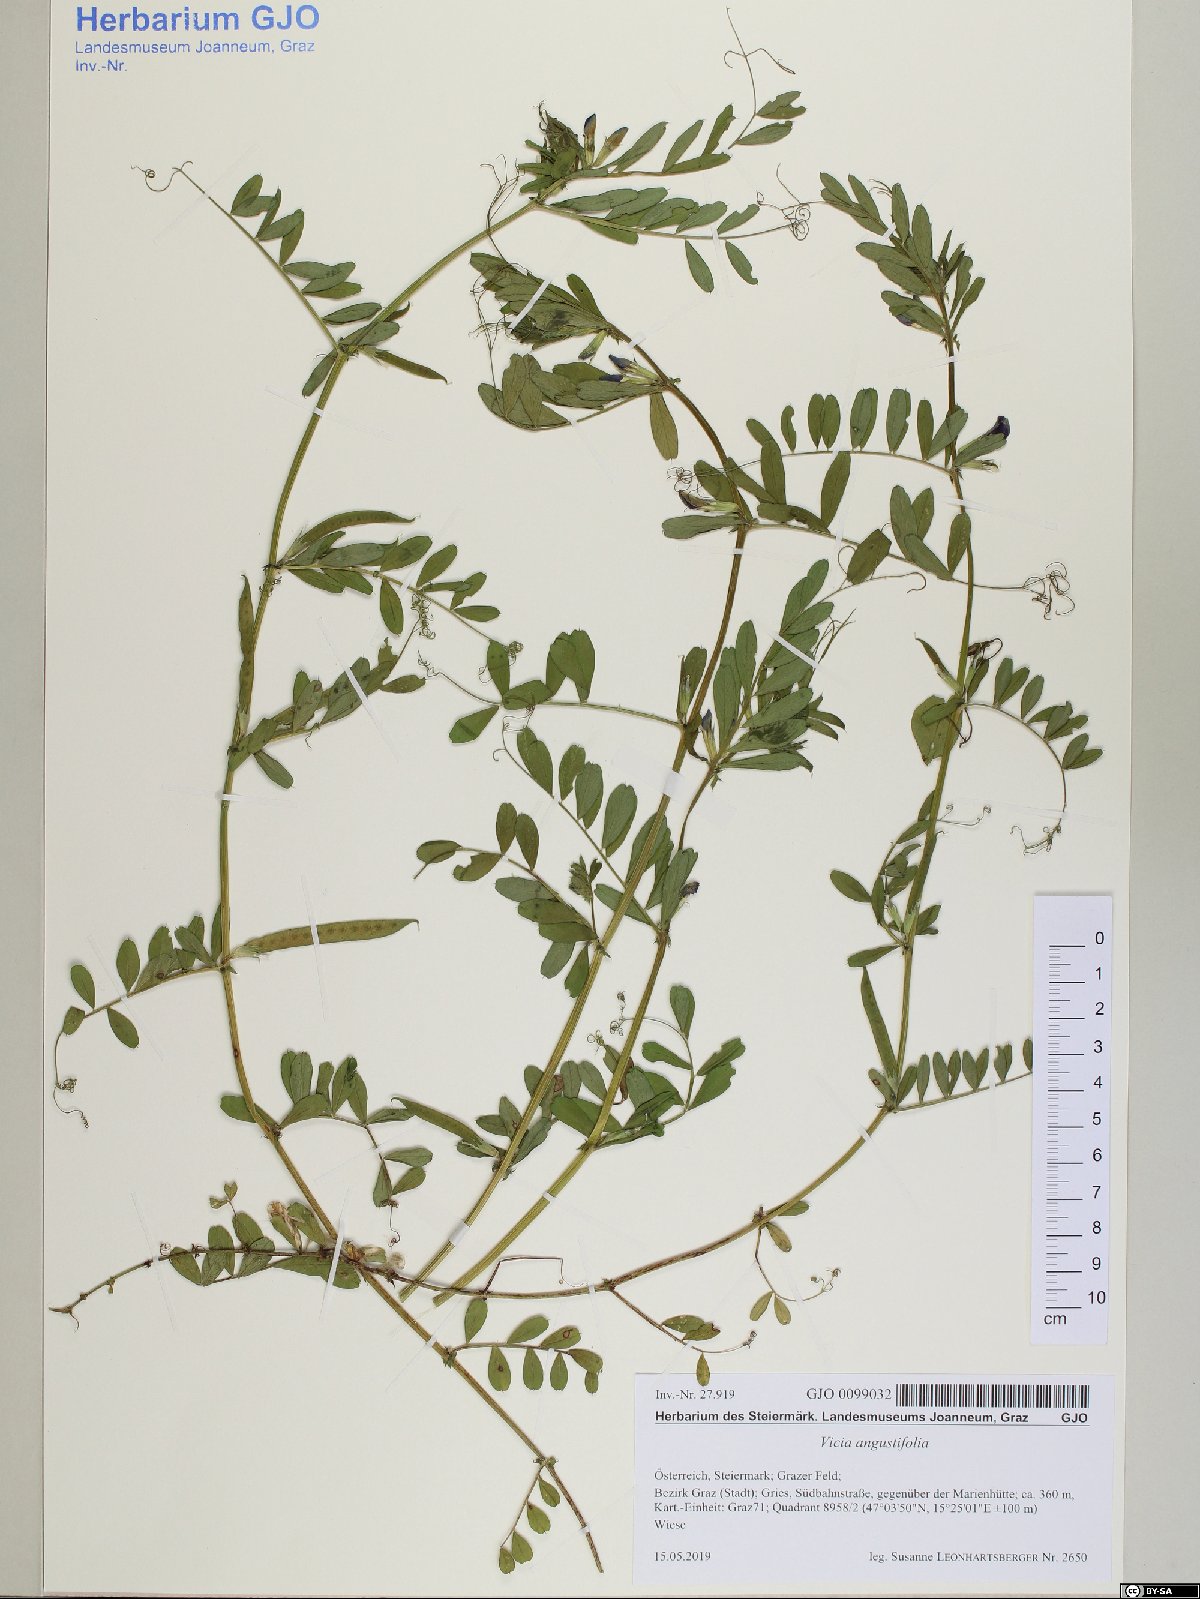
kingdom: Plantae
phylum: Tracheophyta
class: Magnoliopsida
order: Fabales
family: Fabaceae
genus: Vicia
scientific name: Vicia sativa
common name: Garden vetch
